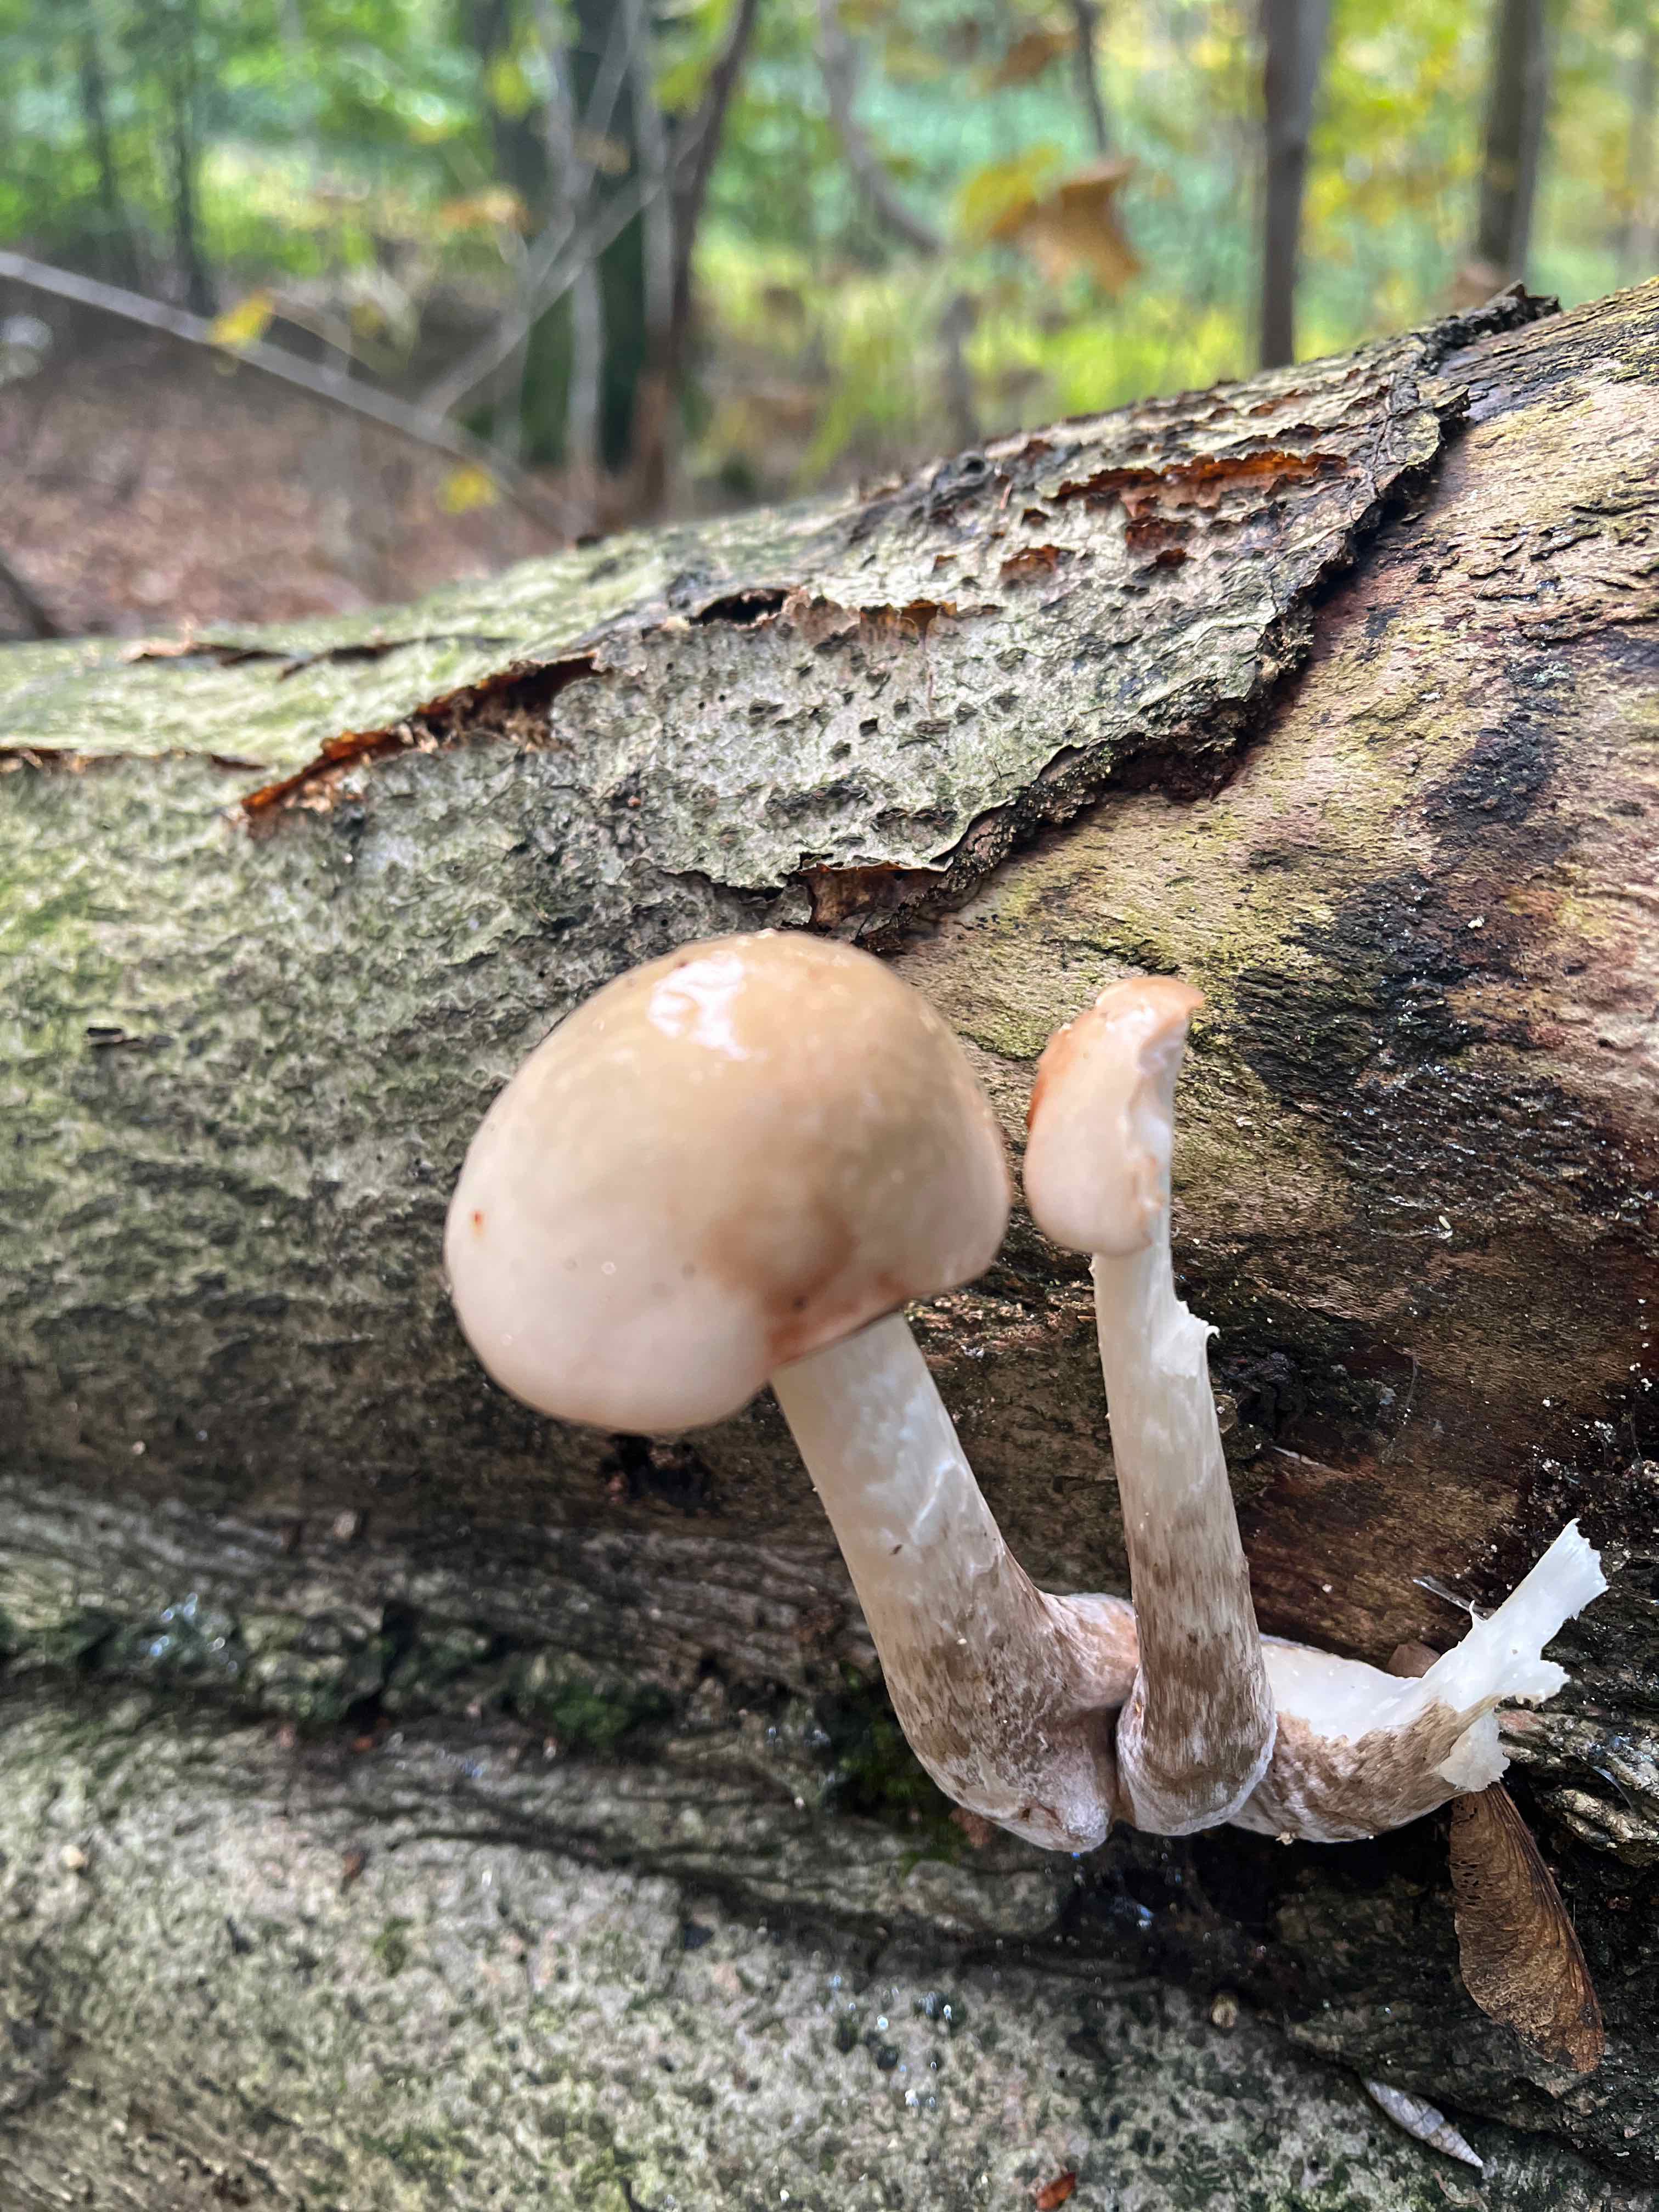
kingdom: Fungi
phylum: Basidiomycota
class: Agaricomycetes
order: Agaricales
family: Physalacriaceae
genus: Mucidula
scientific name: Mucidula mucida
